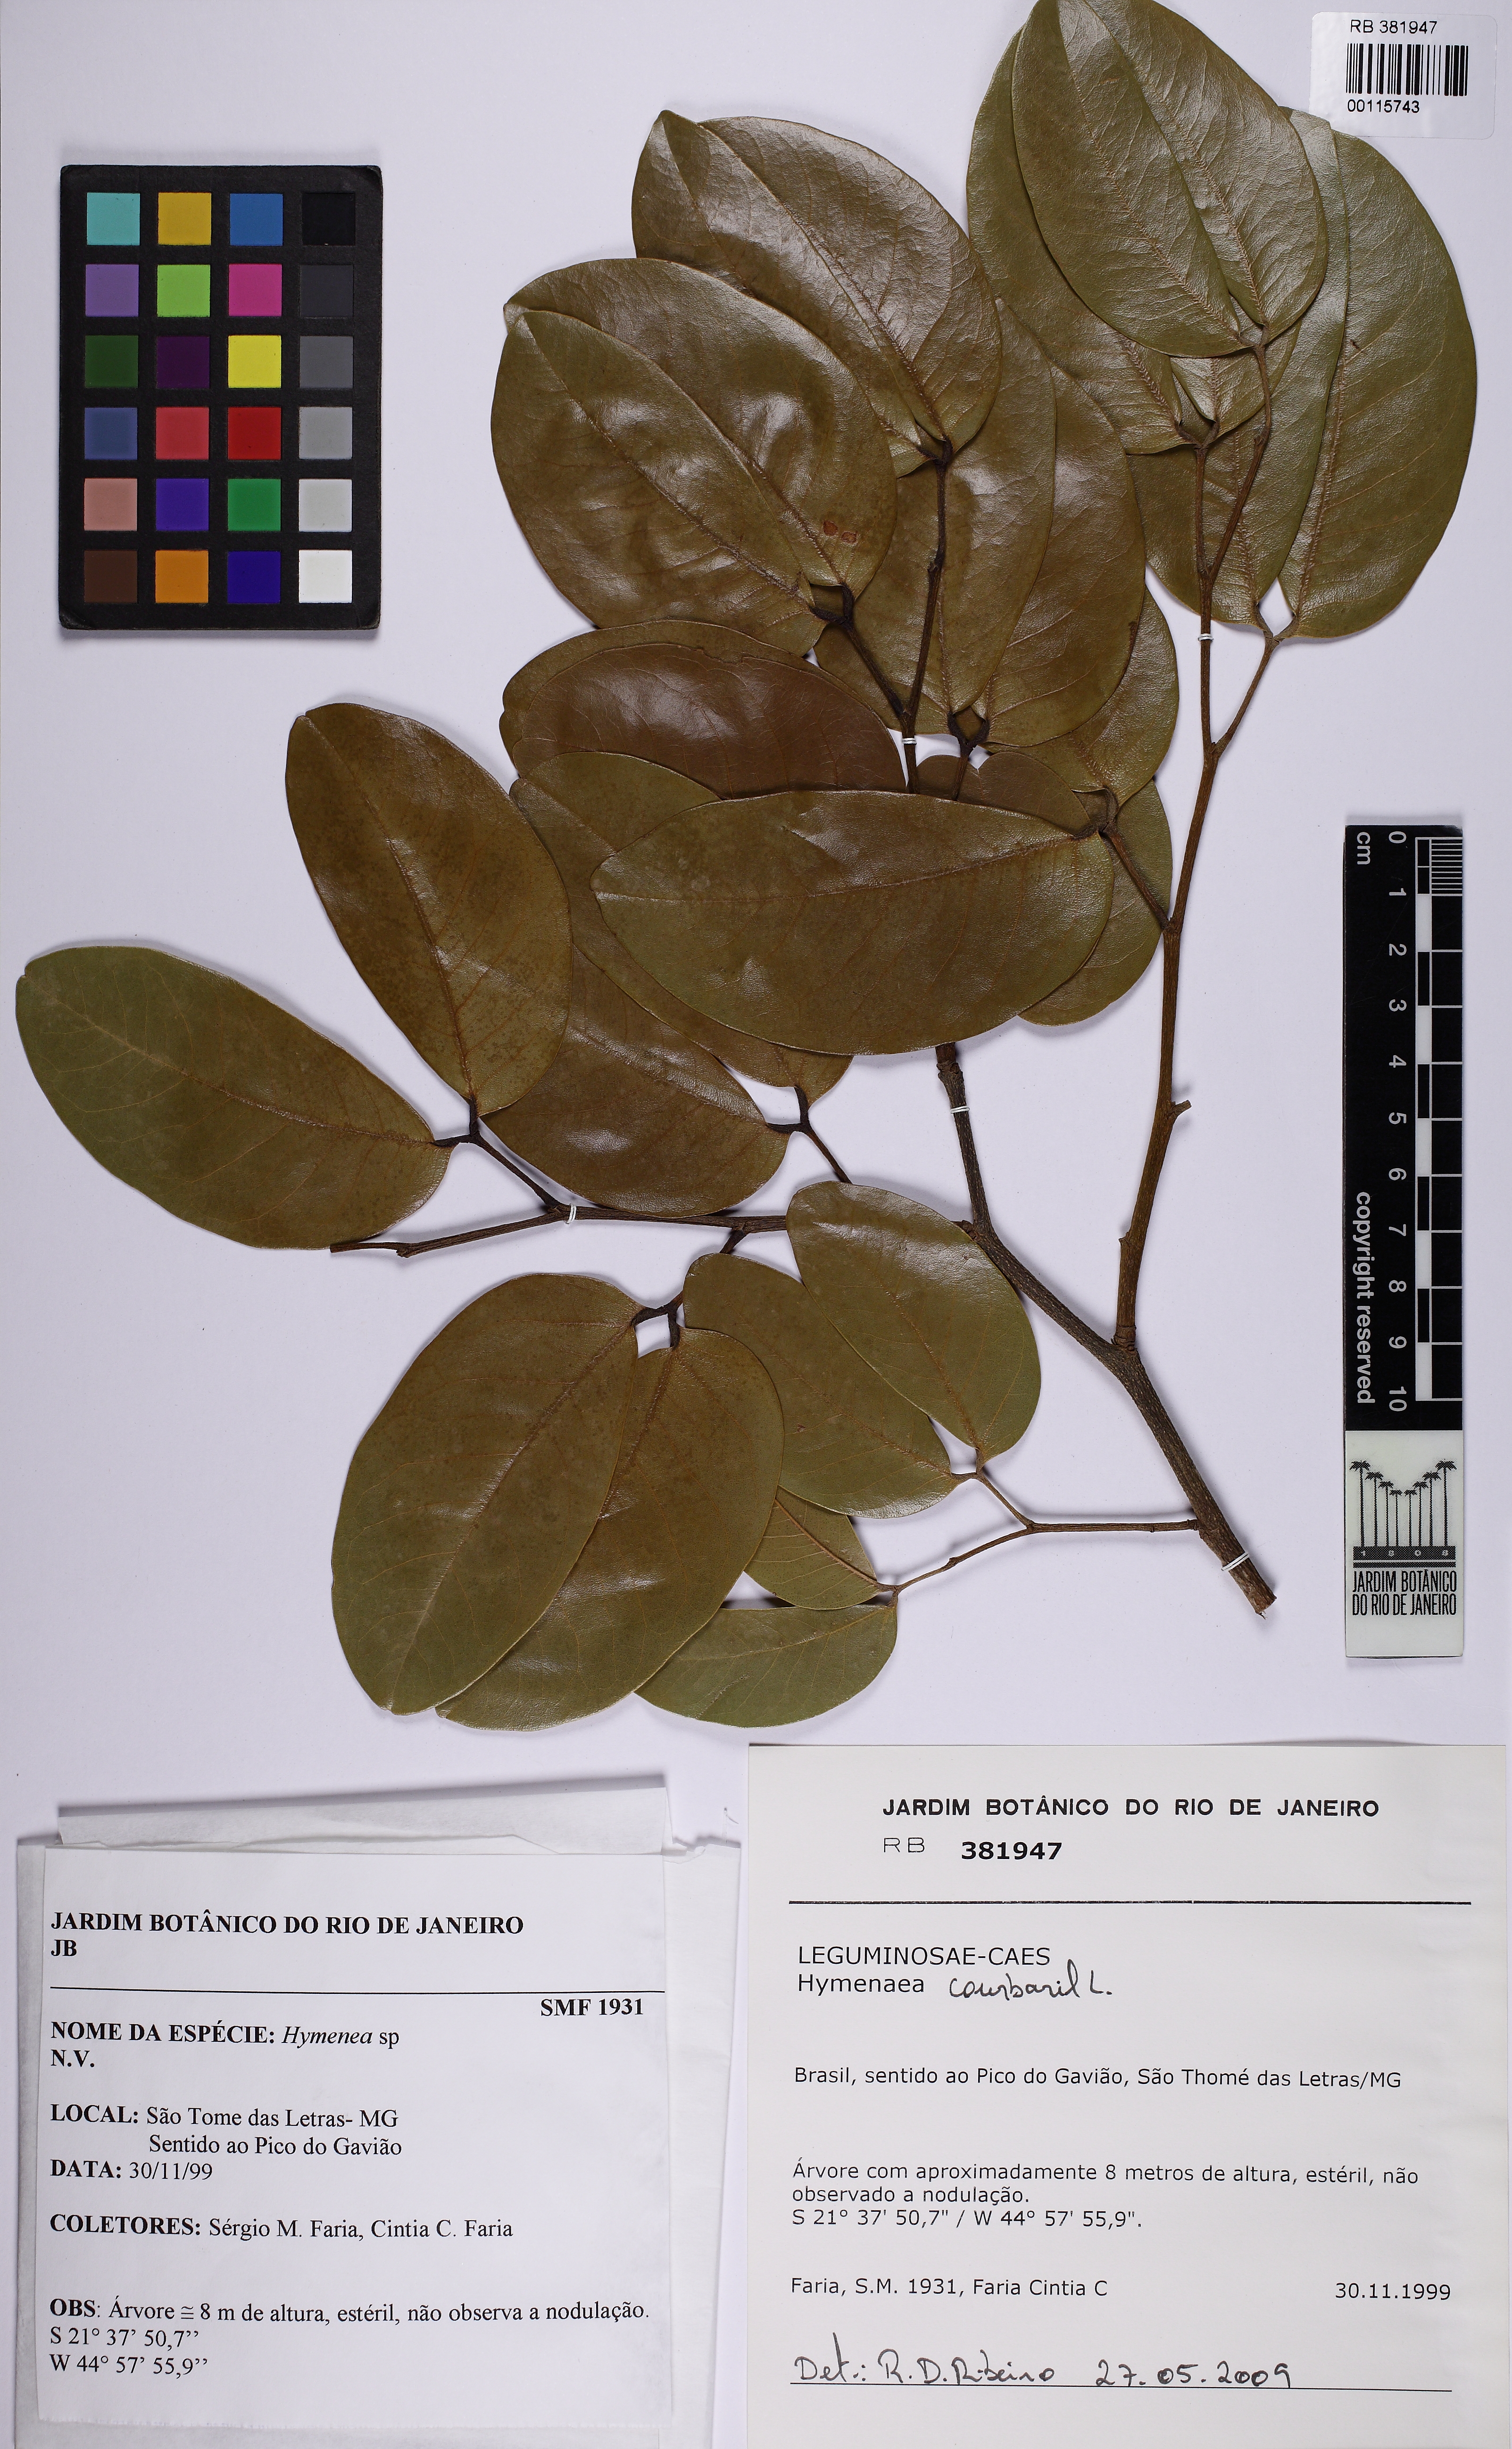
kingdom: Plantae
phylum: Tracheophyta
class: Magnoliopsida
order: Fabales
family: Fabaceae
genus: Hymenaea
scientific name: Hymenaea courbaril
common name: Brazilian copal
